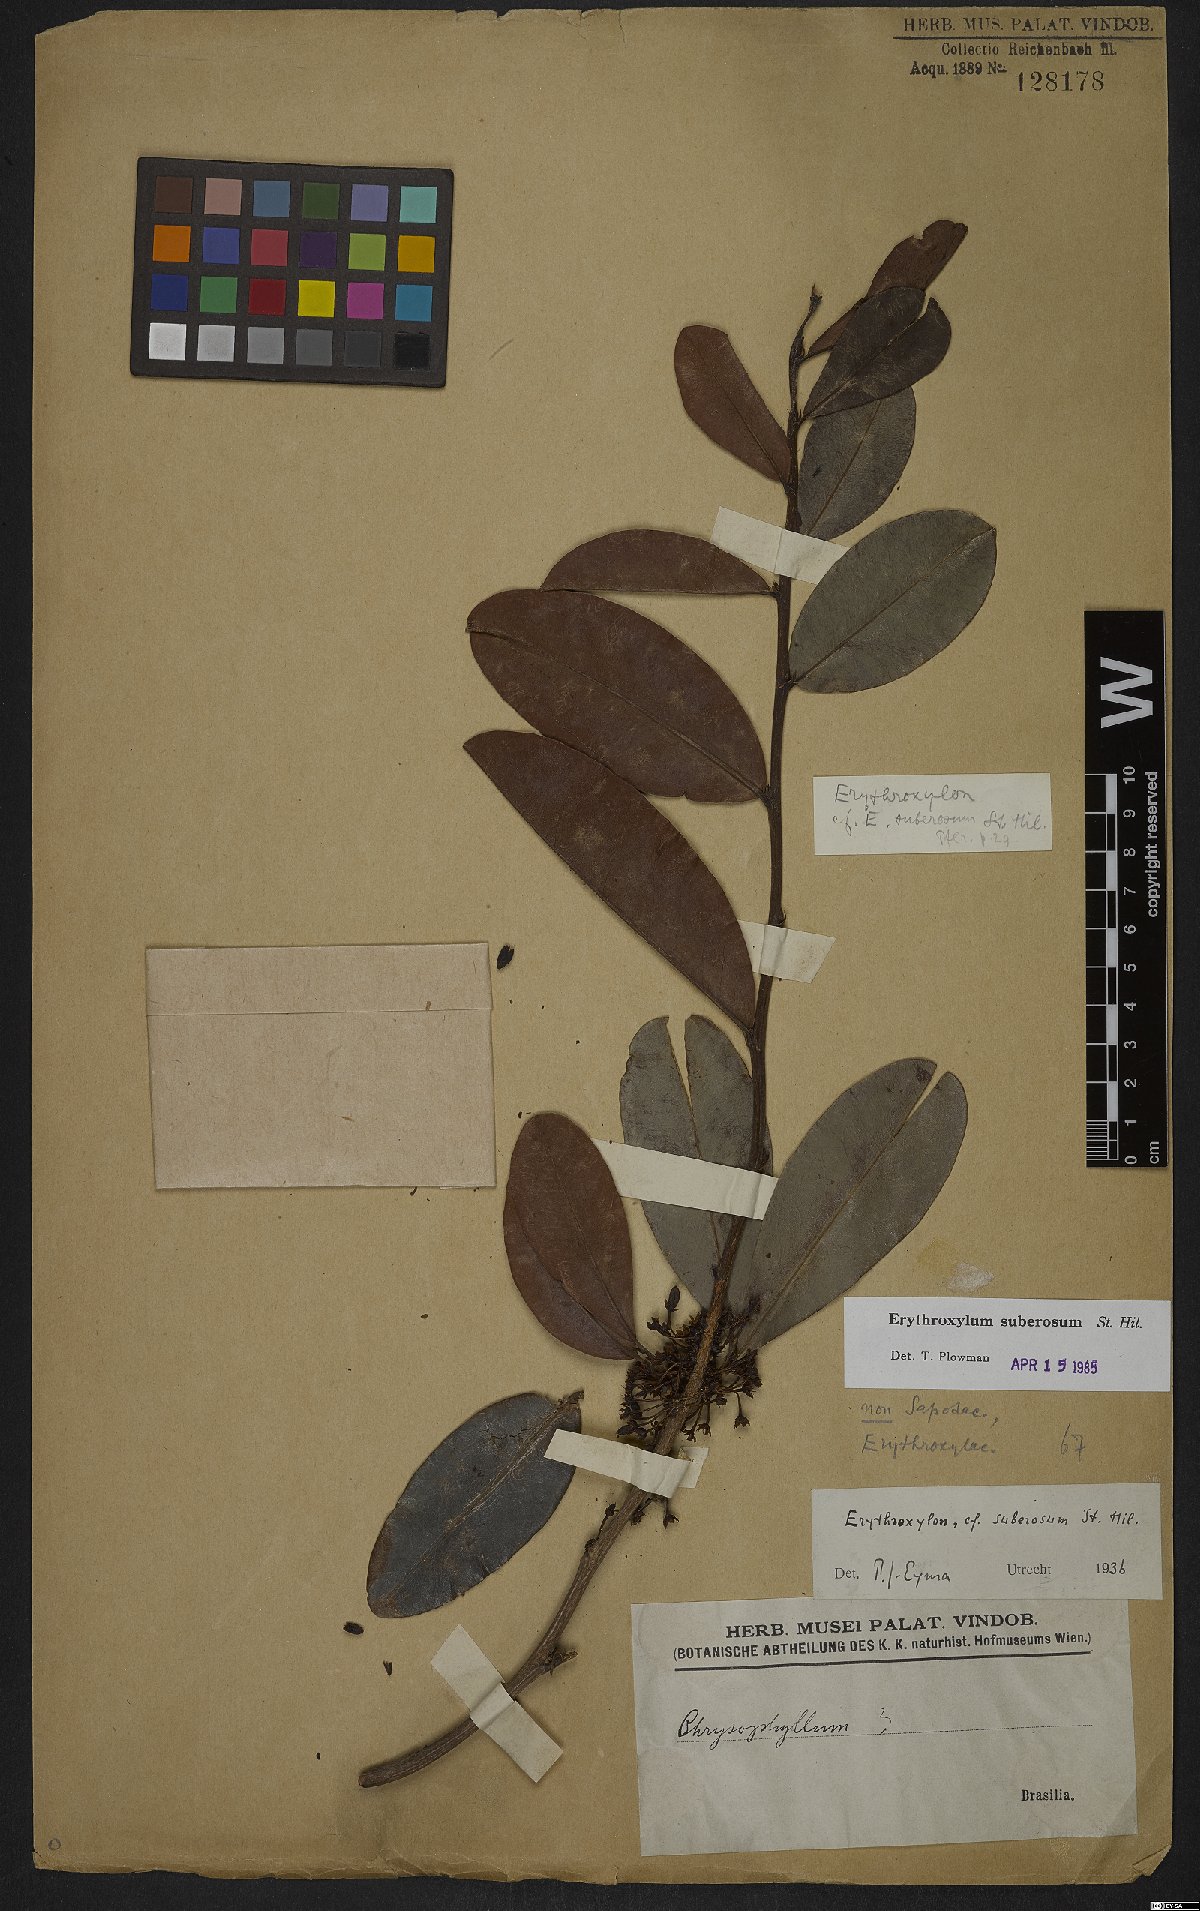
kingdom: Plantae
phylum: Tracheophyta
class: Magnoliopsida
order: Malpighiales
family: Erythroxylaceae
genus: Erythroxylum
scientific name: Erythroxylum suberosum
